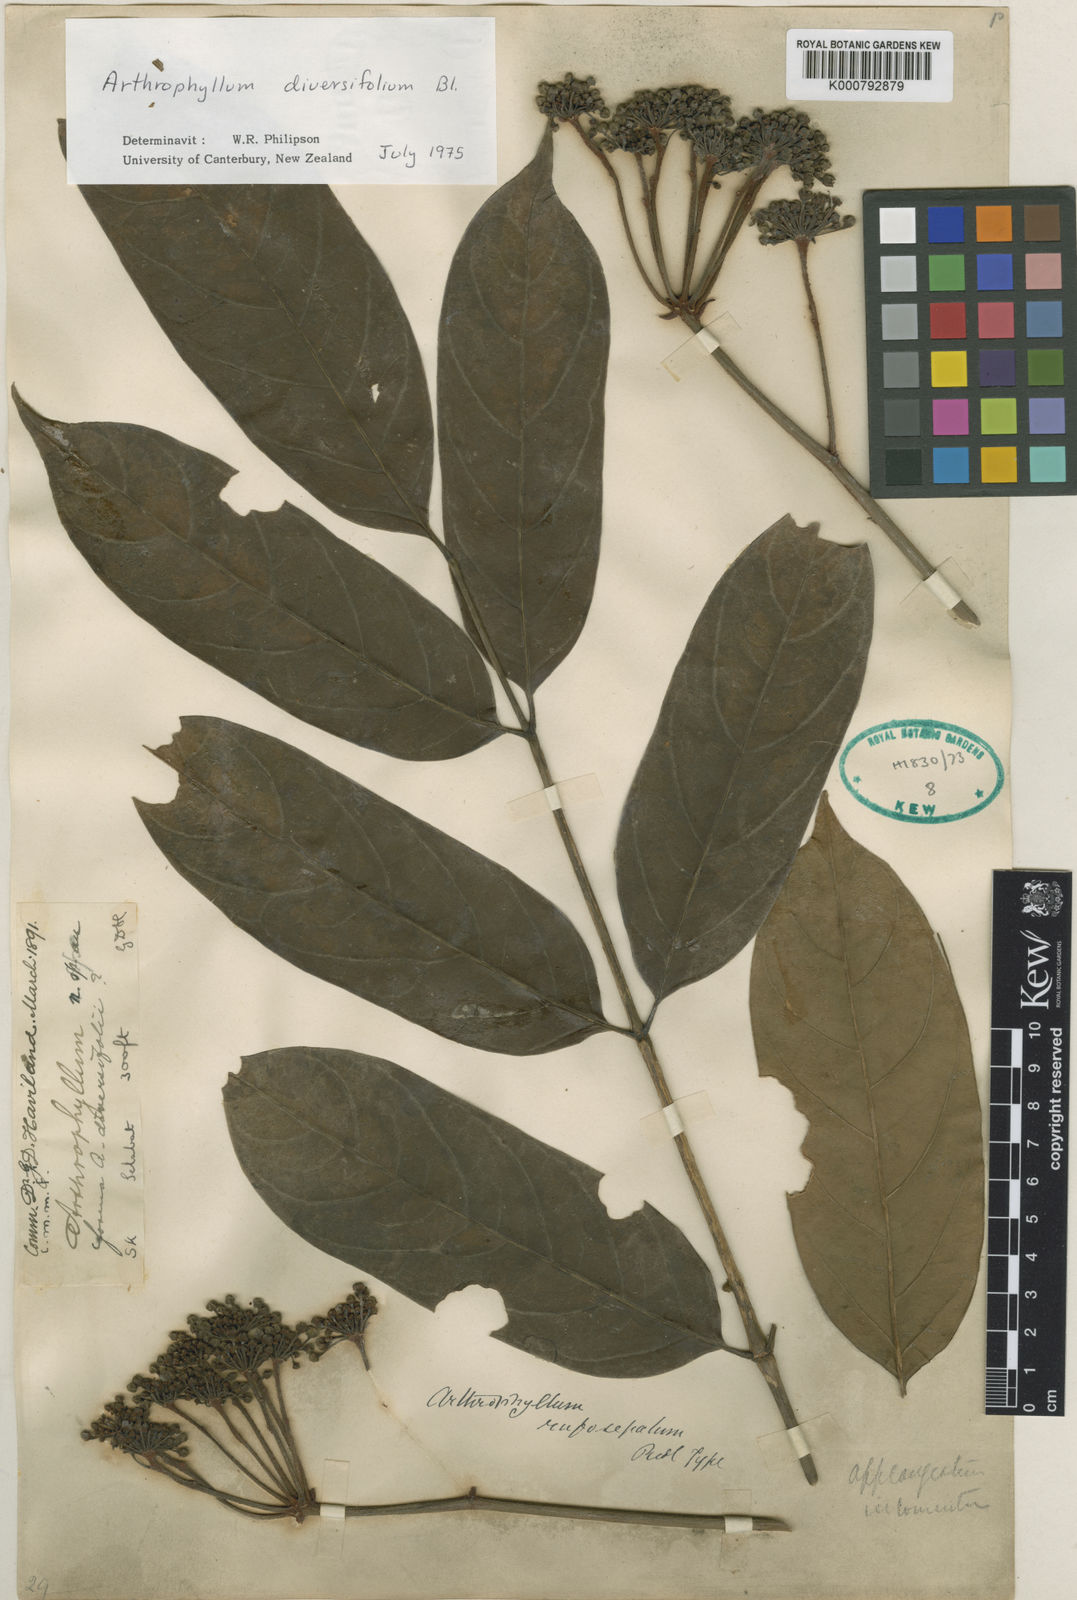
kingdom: Plantae
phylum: Tracheophyta
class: Magnoliopsida
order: Apiales
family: Araliaceae
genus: Polyscias
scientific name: Polyscias rufosepala
